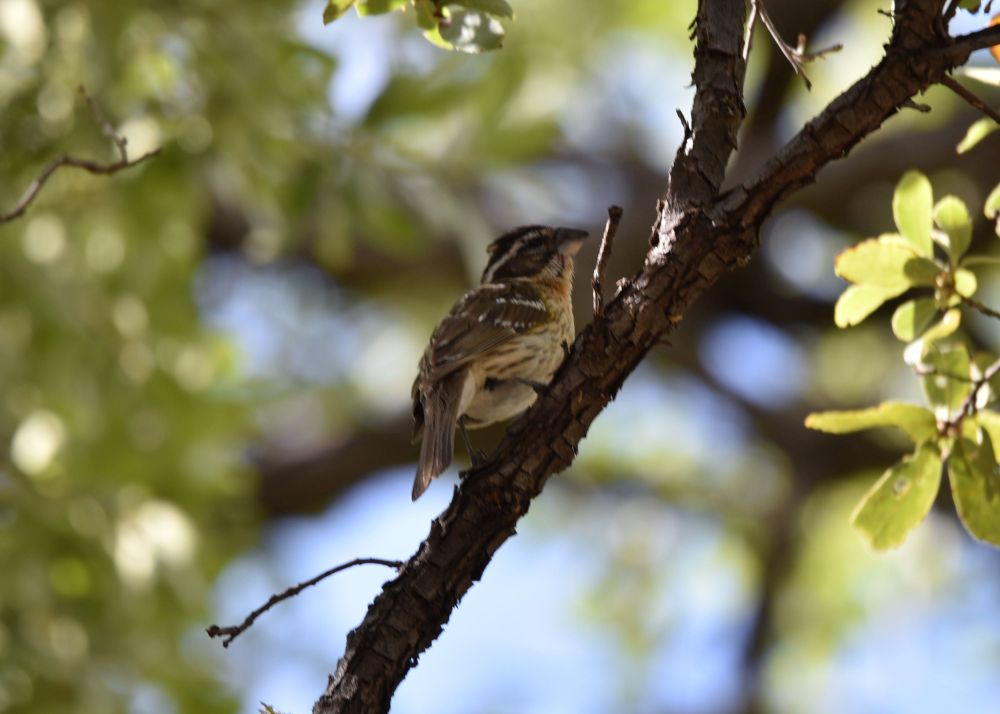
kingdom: Animalia
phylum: Chordata
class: Aves
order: Passeriformes
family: Cardinalidae
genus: Pheucticus
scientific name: Pheucticus melanocephalus
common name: Black-headed grosbeak
